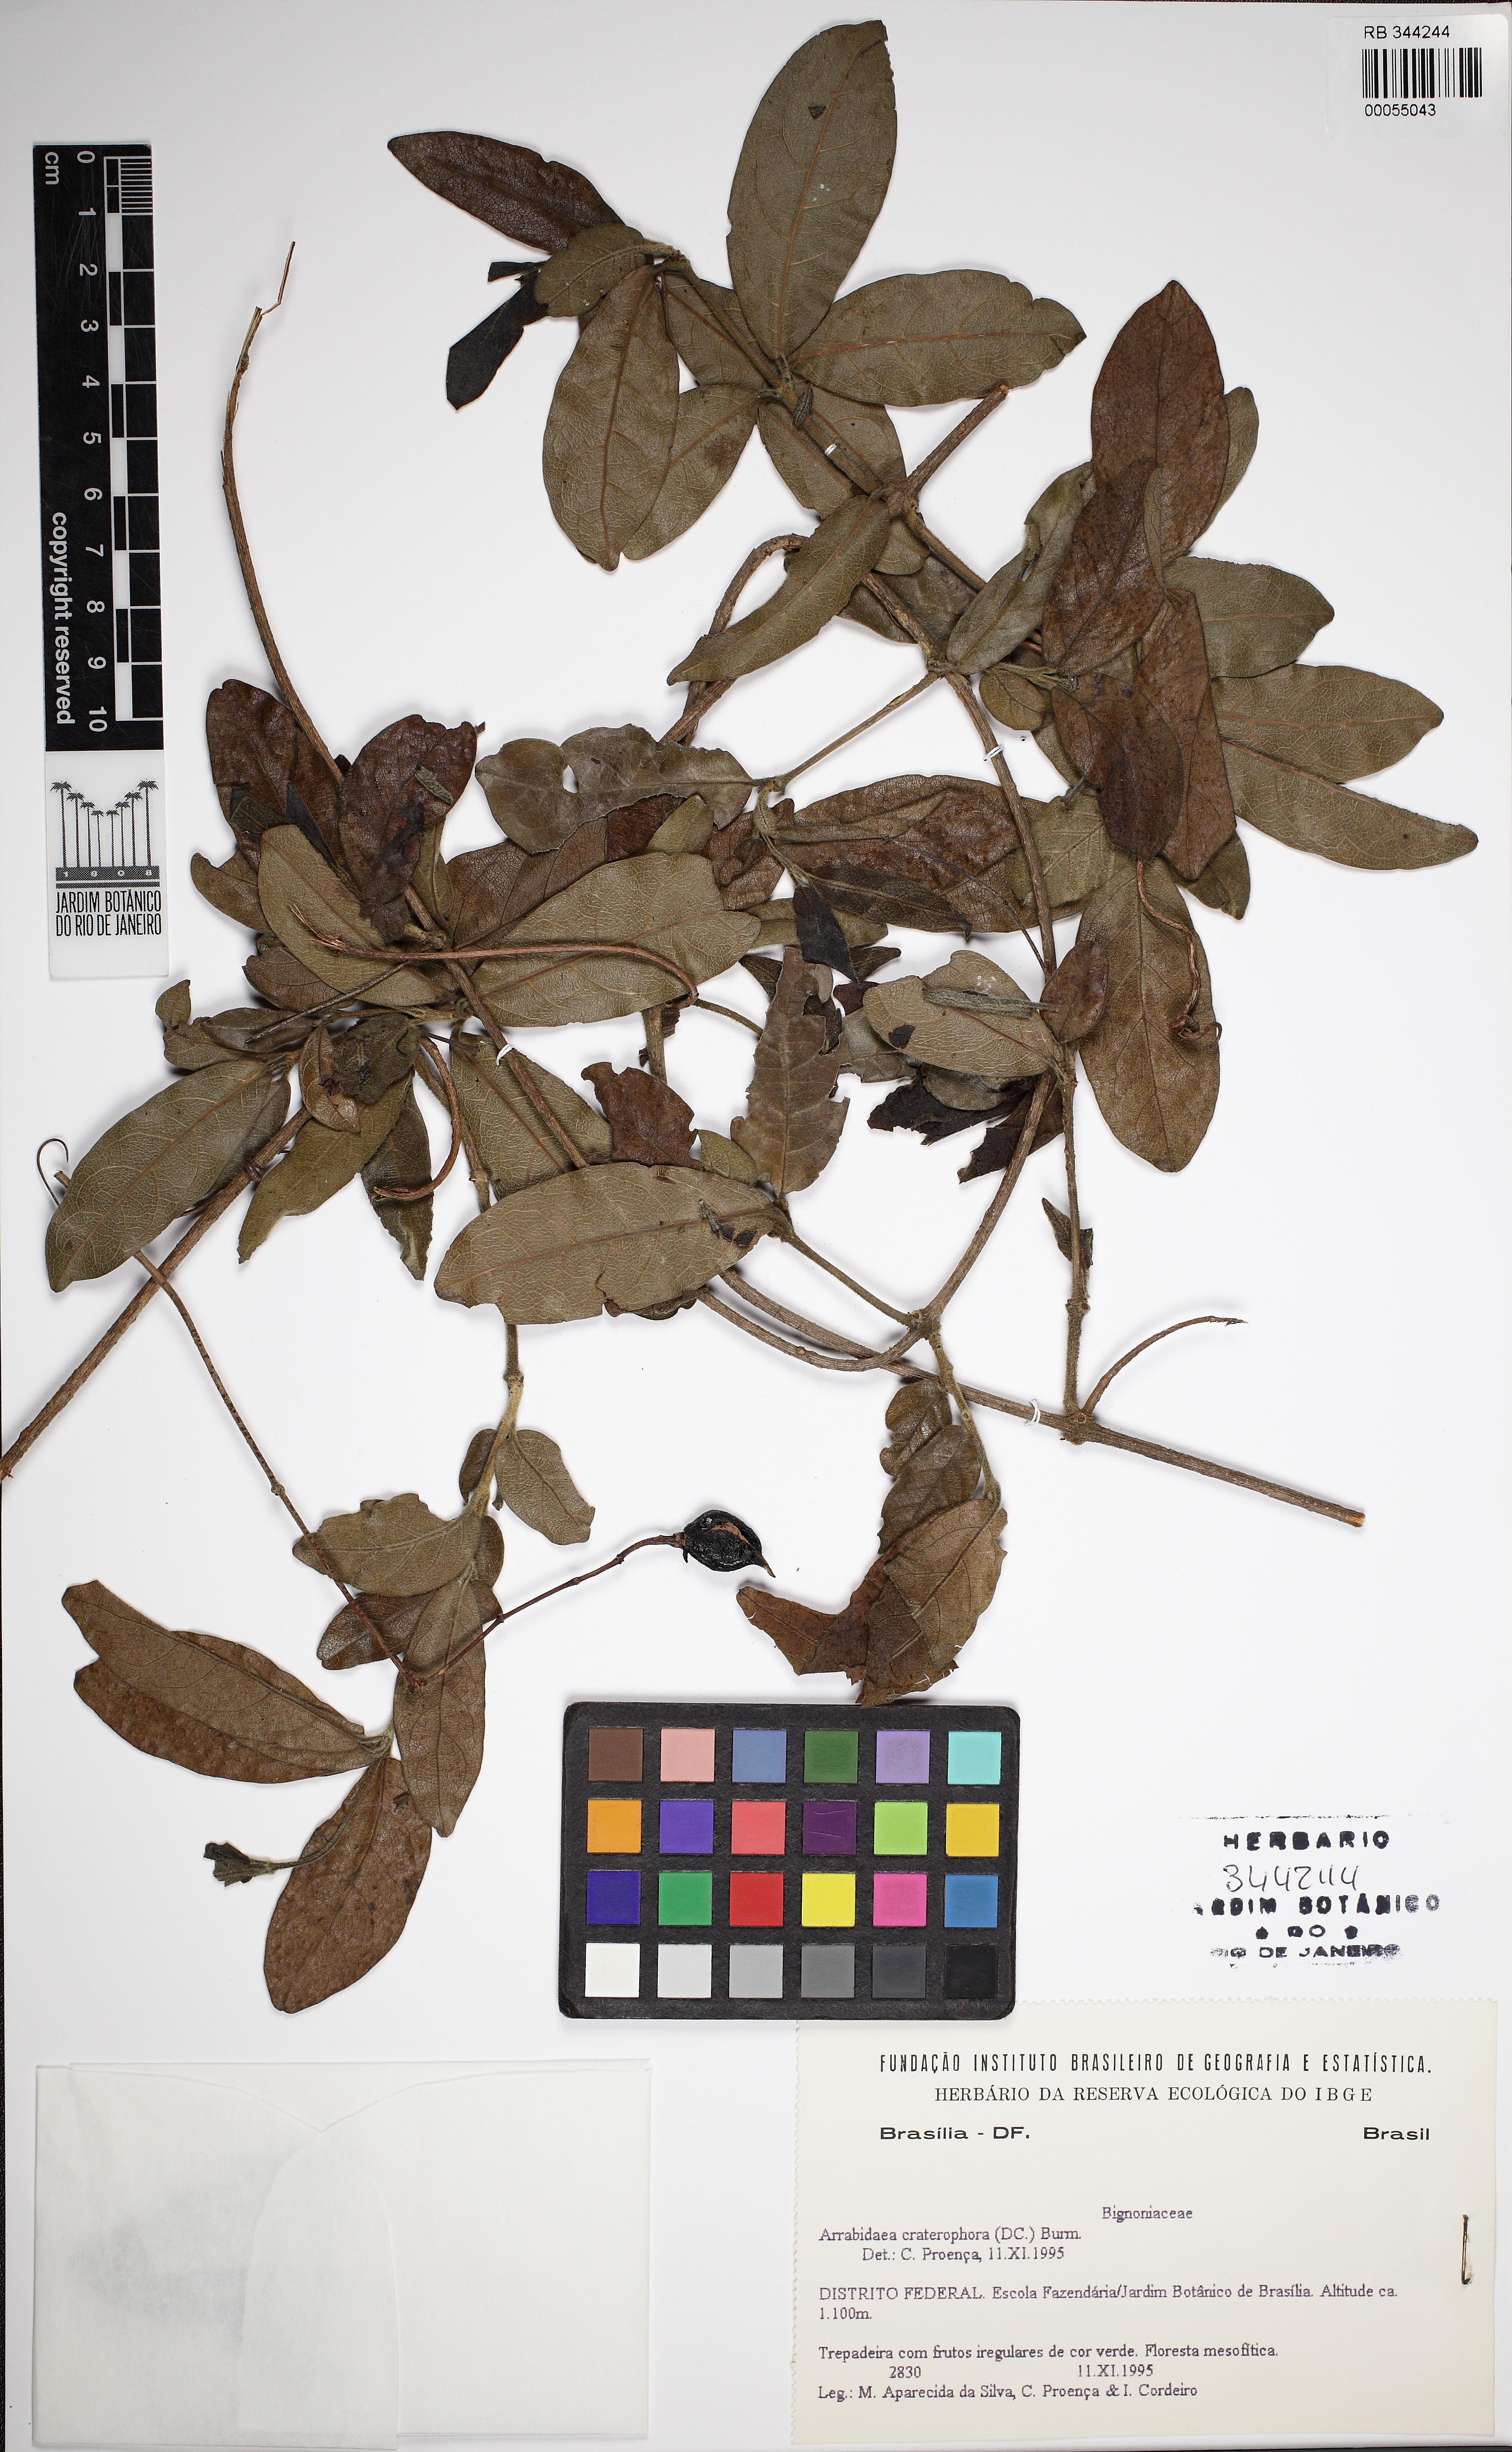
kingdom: Plantae
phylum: Tracheophyta
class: Magnoliopsida
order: Lamiales
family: Bignoniaceae
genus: Fridericia
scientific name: Fridericia craterophora
